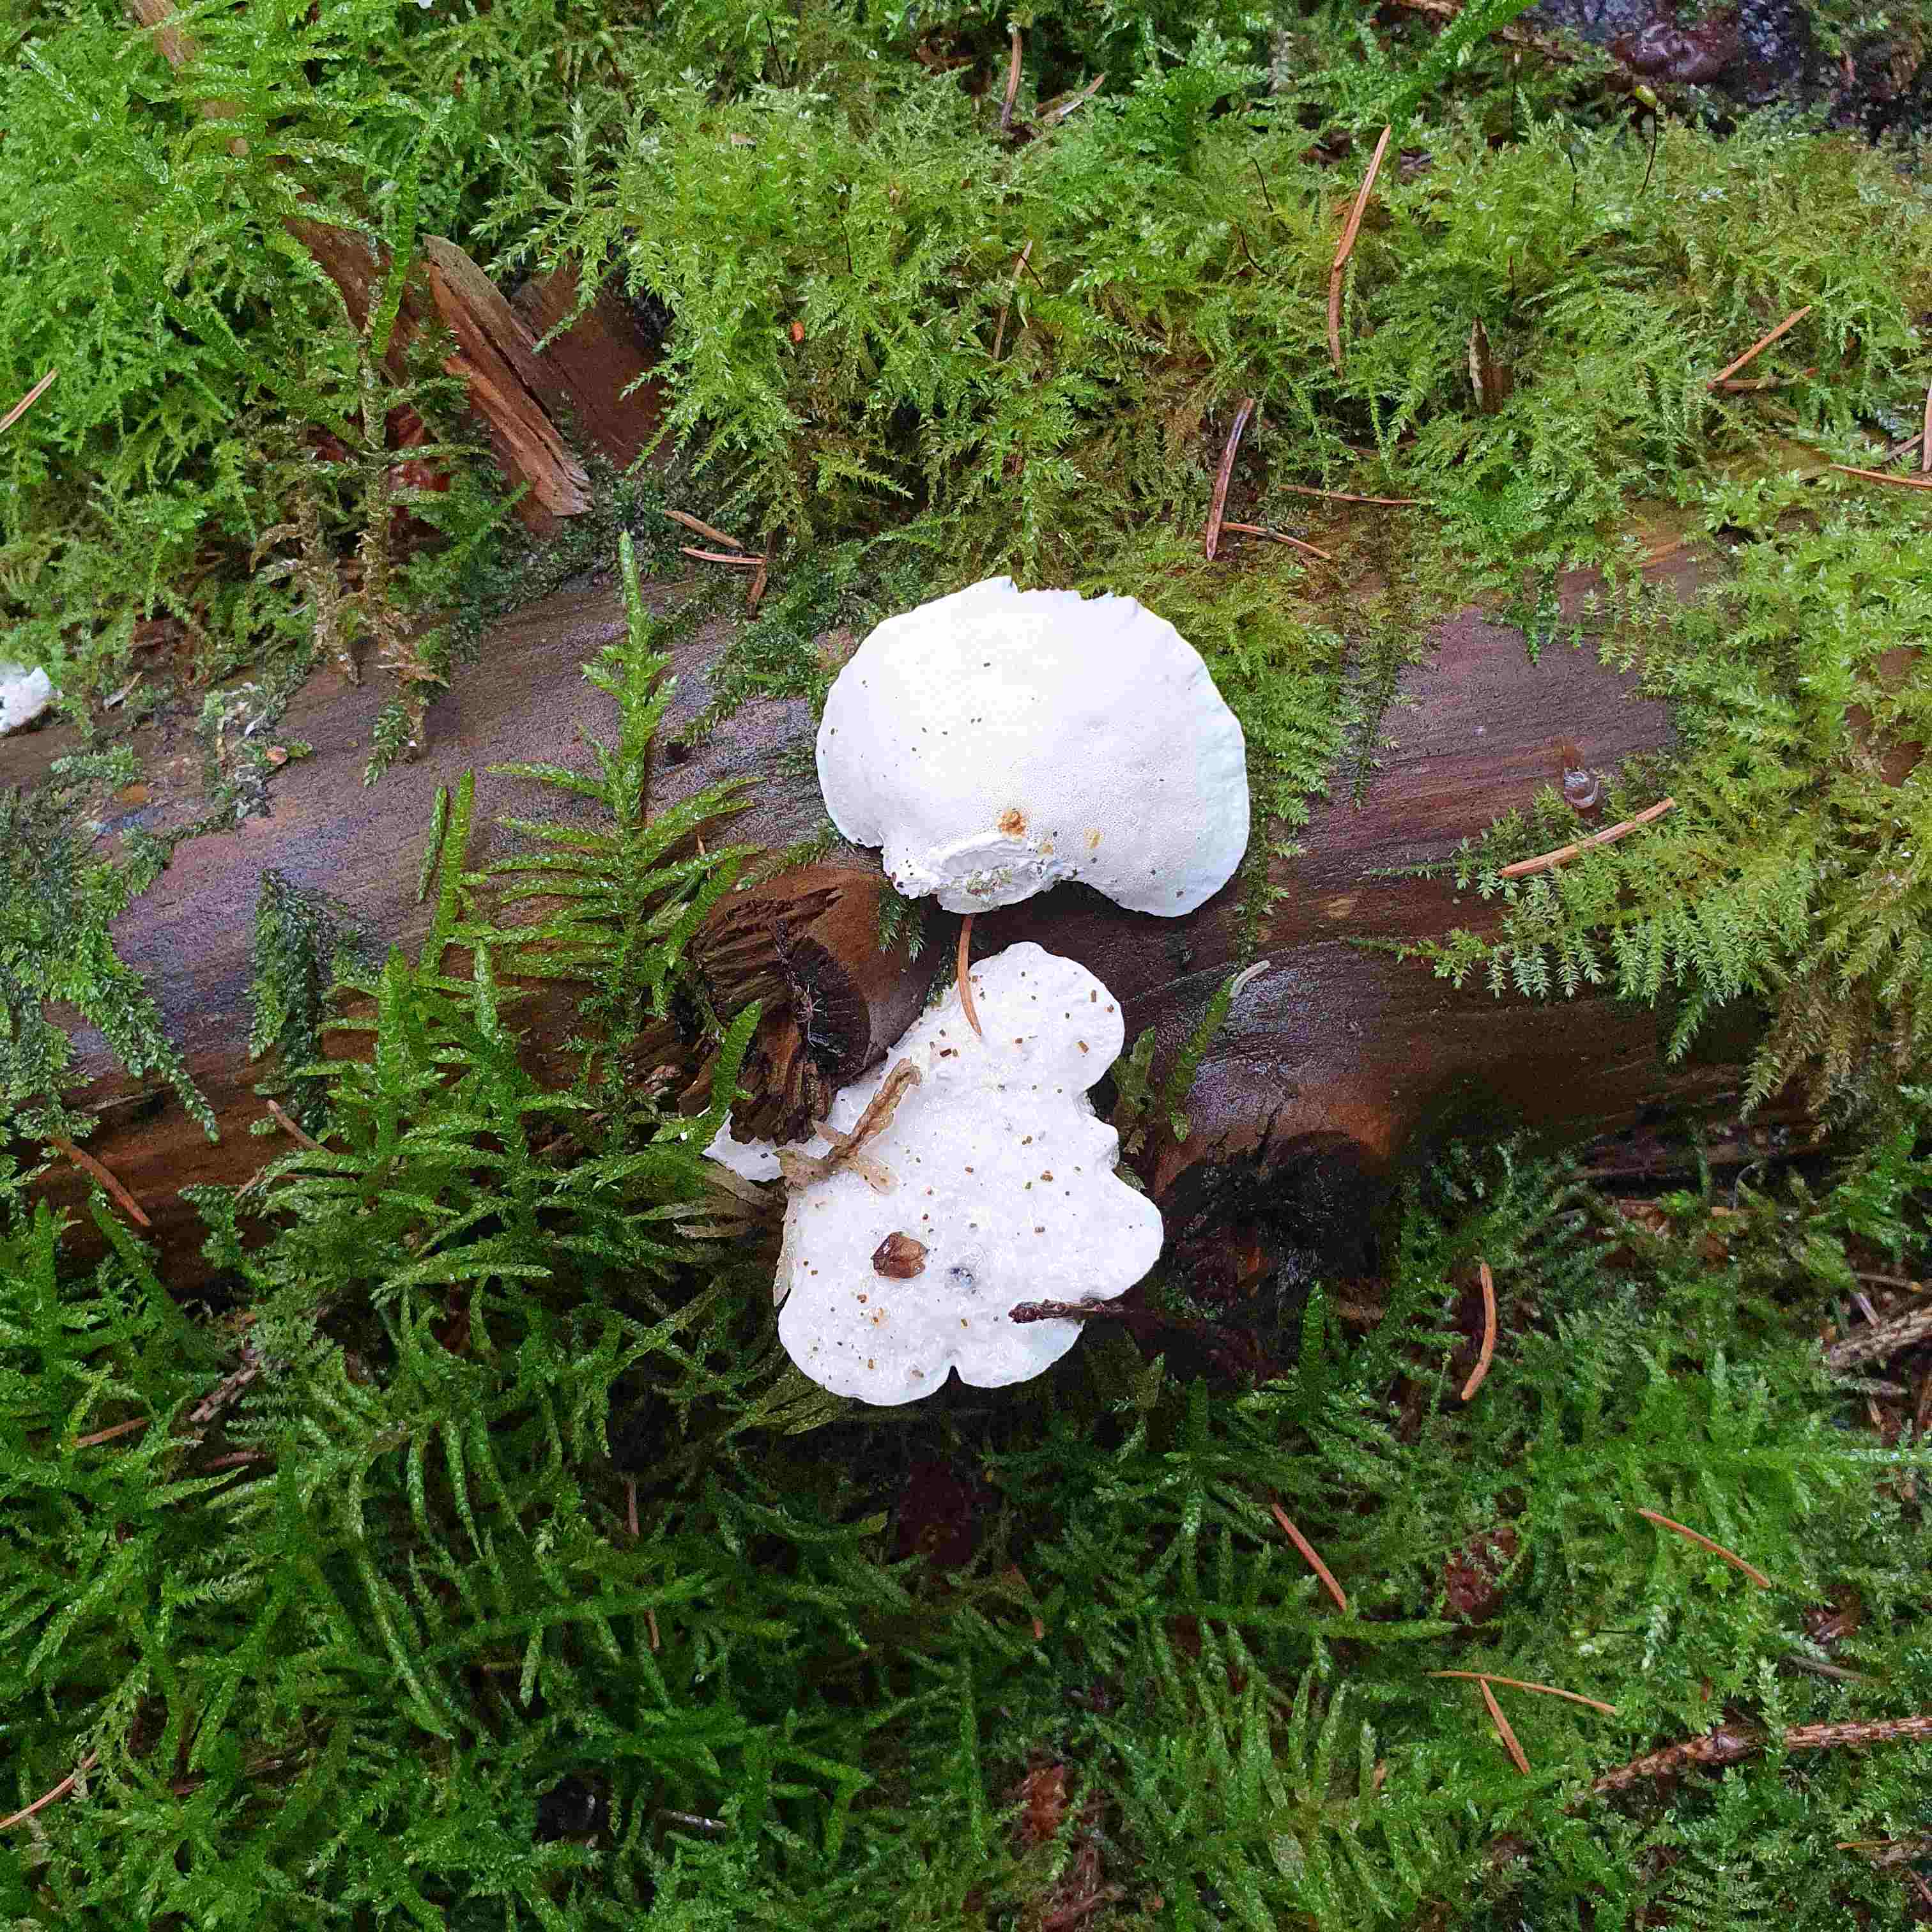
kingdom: Fungi
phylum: Basidiomycota
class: Agaricomycetes
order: Polyporales
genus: Amaropostia
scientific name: Amaropostia stiptica
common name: bitter kødporesvamp
